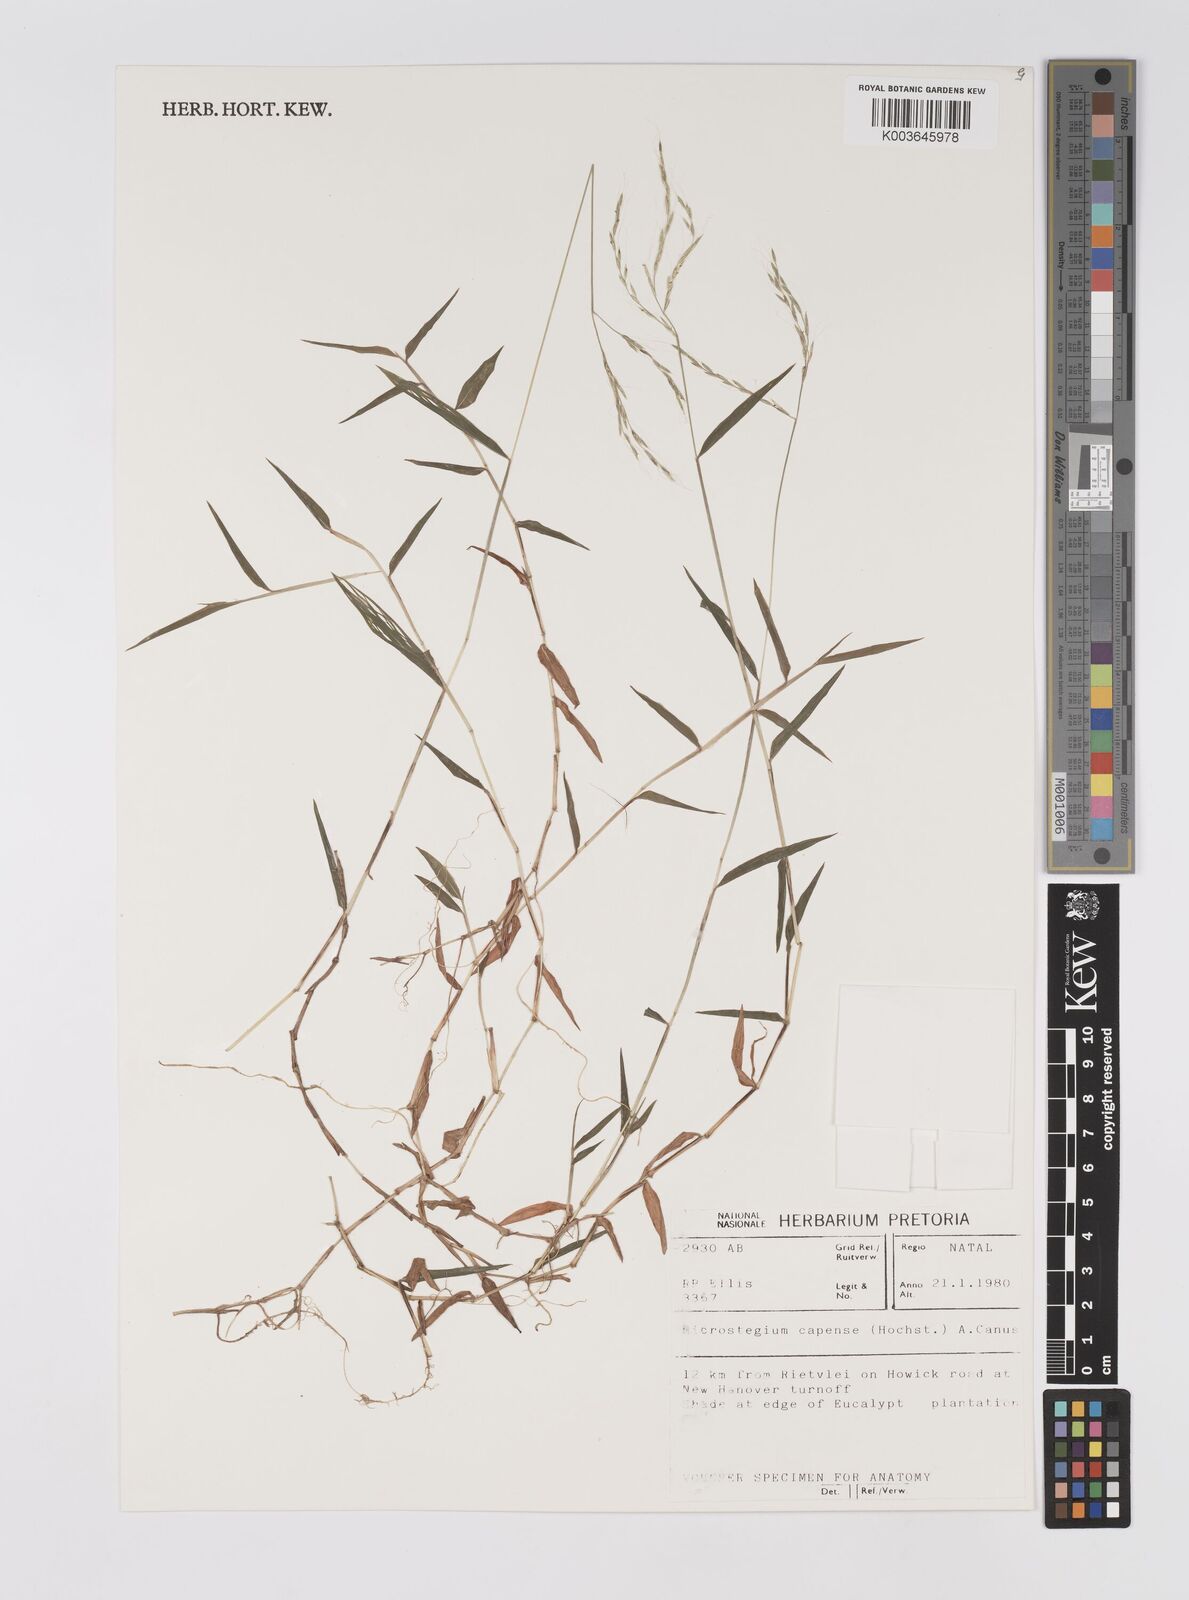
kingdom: Plantae
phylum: Tracheophyta
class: Liliopsida
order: Poales
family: Poaceae
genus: Microstegium
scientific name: Microstegium nudum
